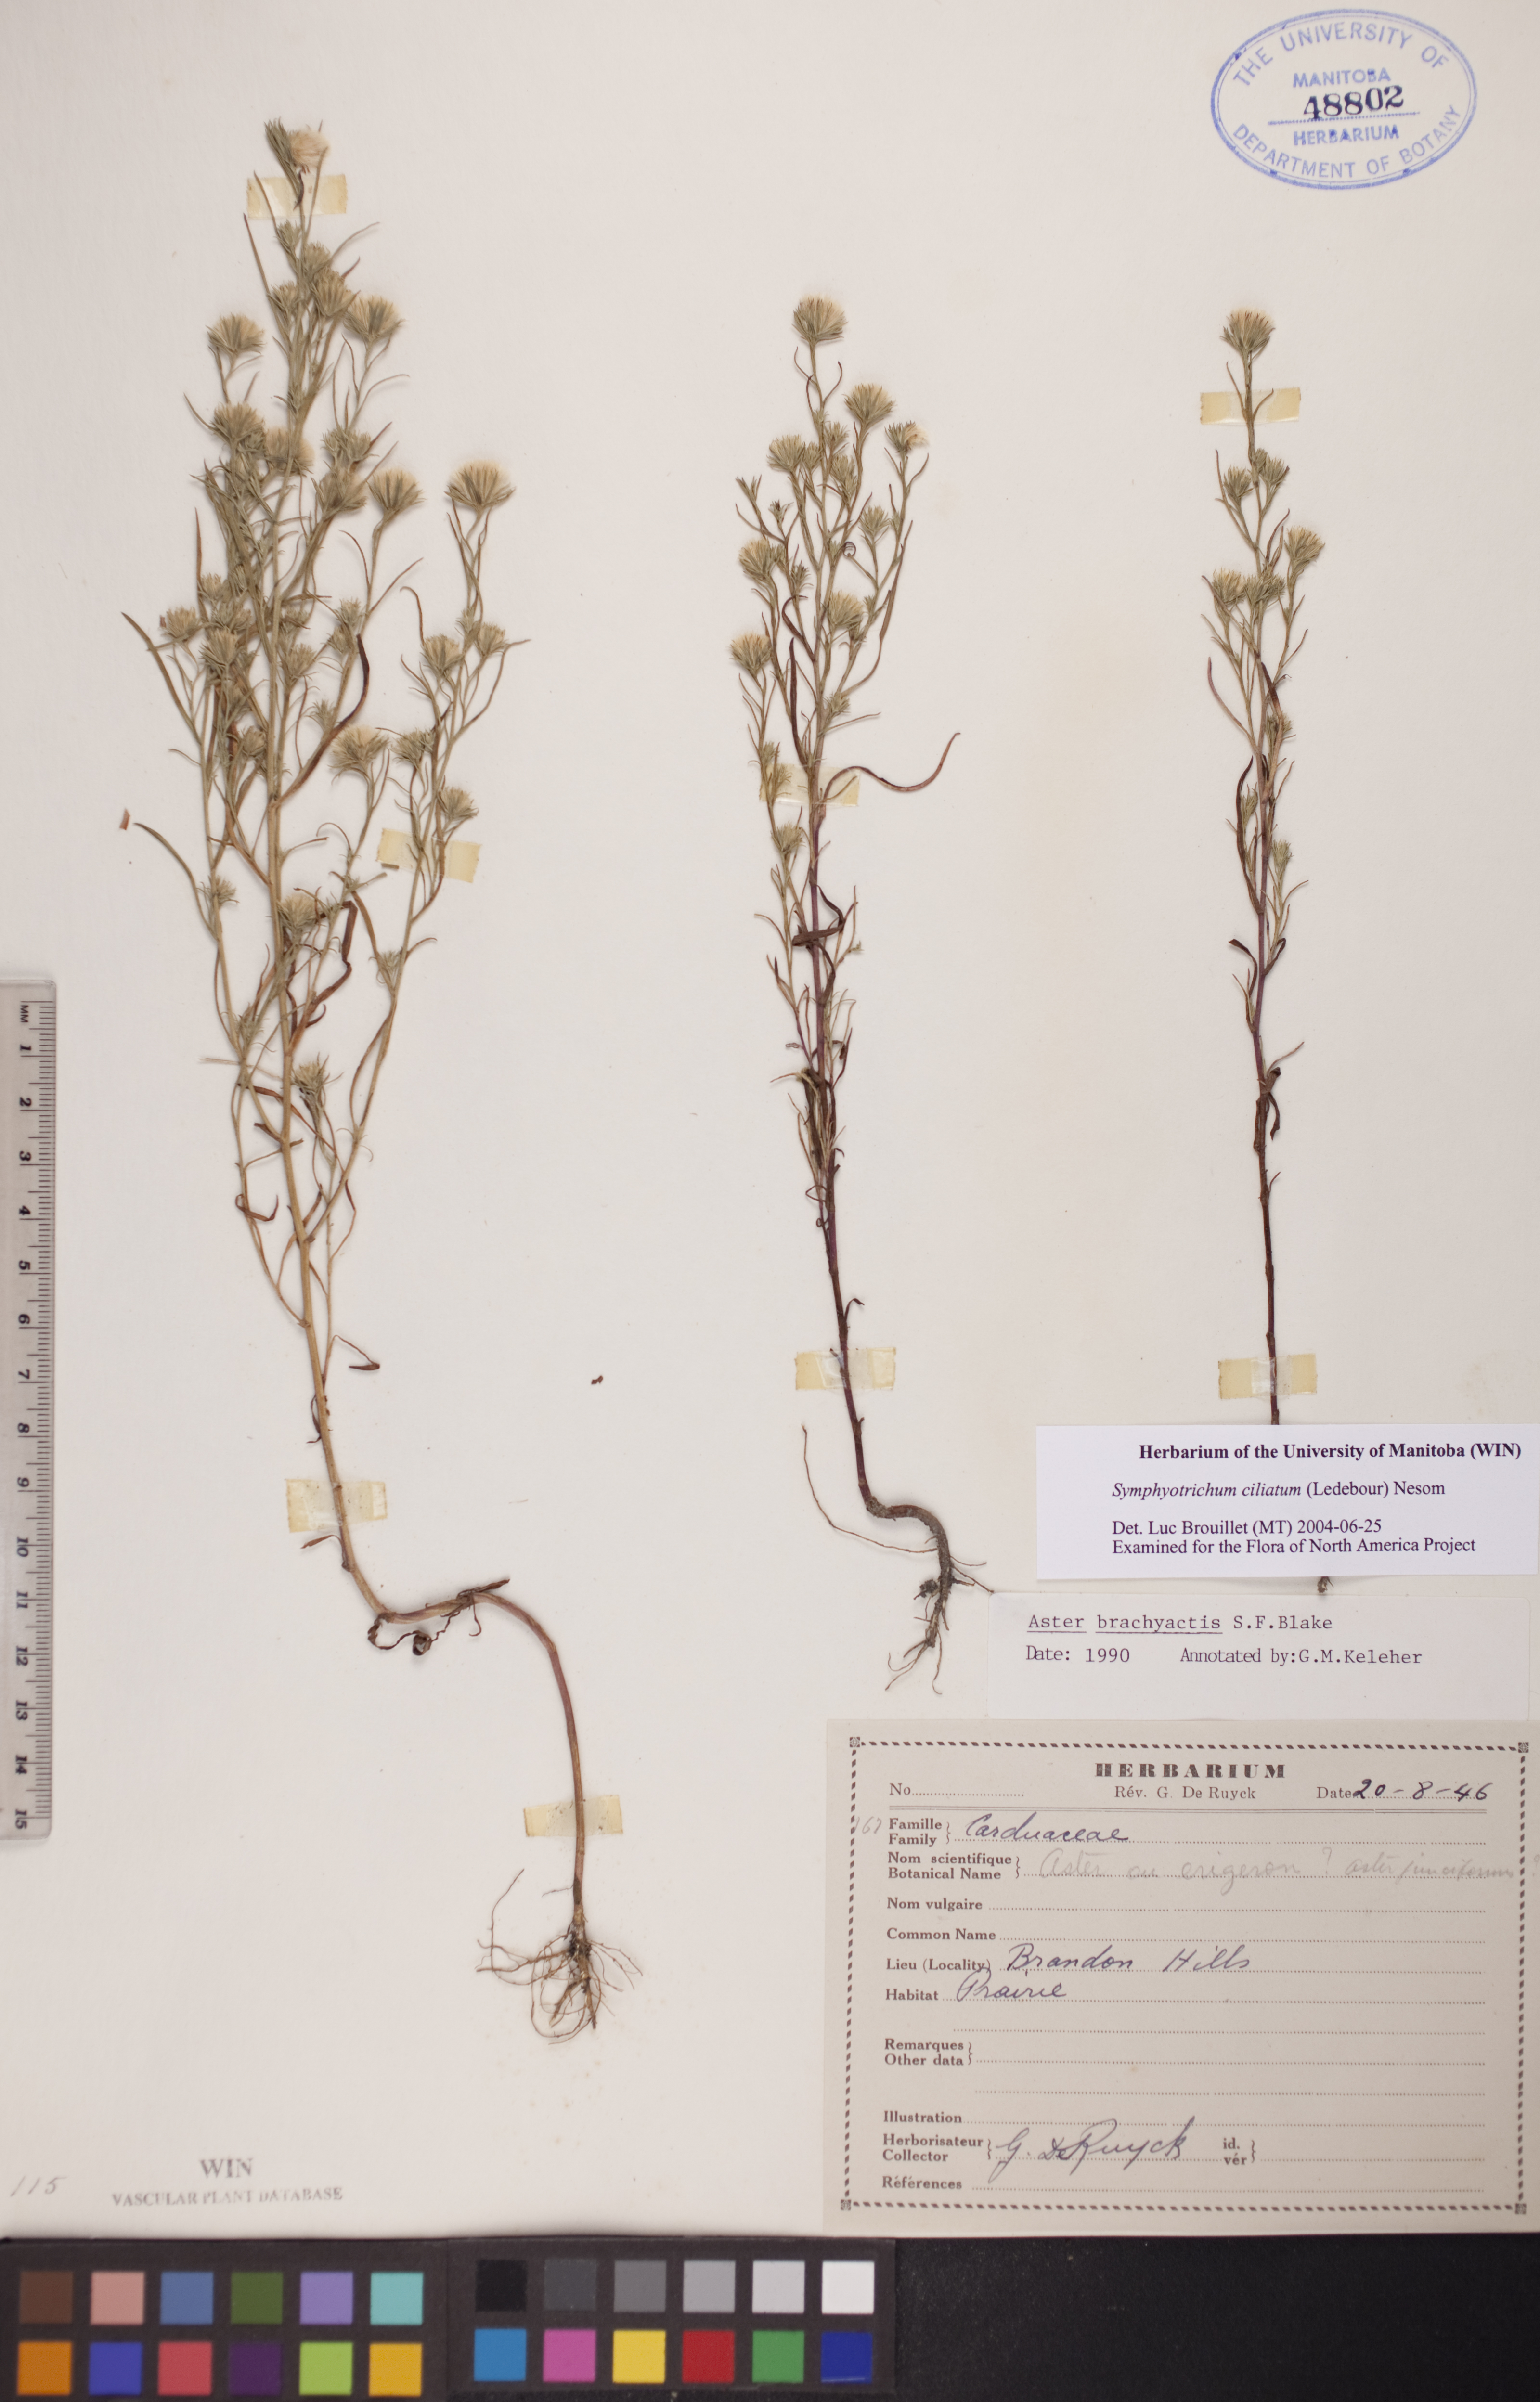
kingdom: Plantae
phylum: Tracheophyta
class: Magnoliopsida
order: Asterales
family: Asteraceae
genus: Symphyotrichum
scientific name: Symphyotrichum ciliatum
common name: Rayless annual aster
